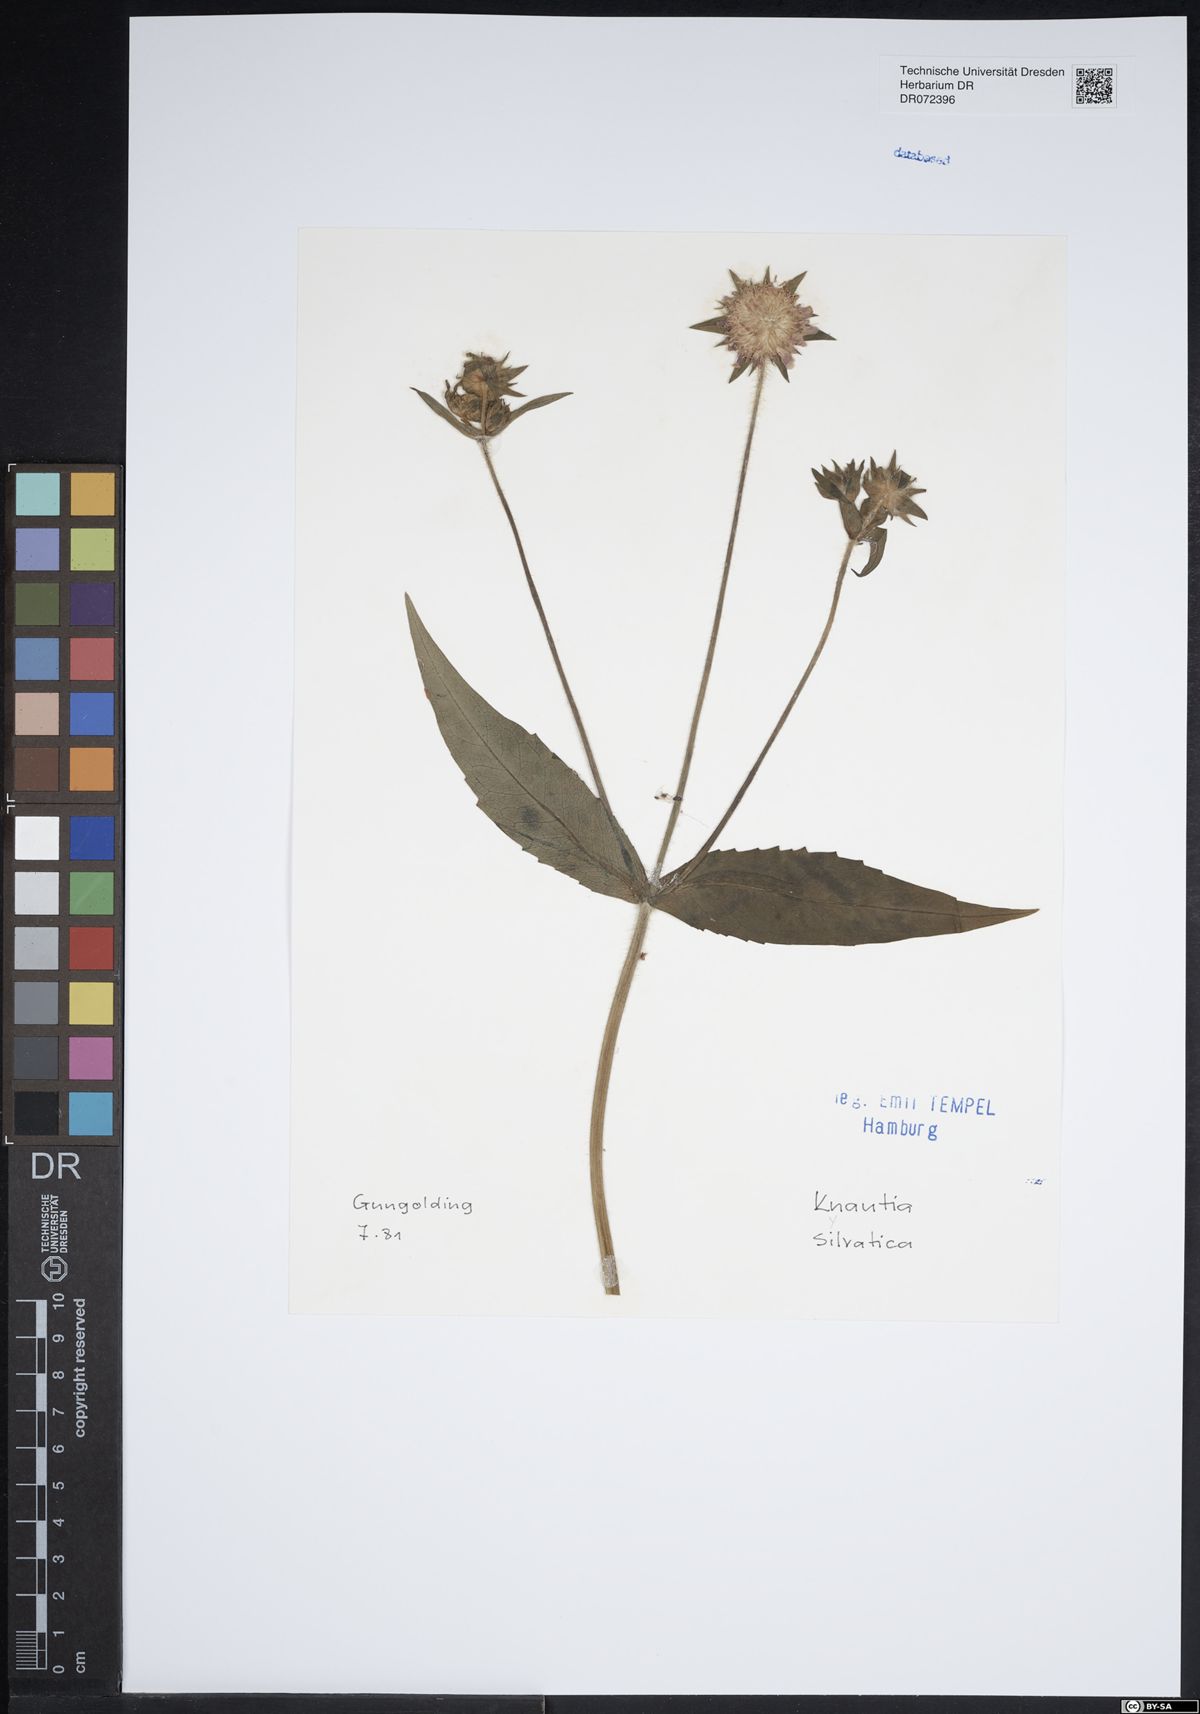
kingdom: Plantae
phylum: Tracheophyta
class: Magnoliopsida
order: Dipsacales
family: Caprifoliaceae
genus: Knautia
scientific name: Knautia drymeia
